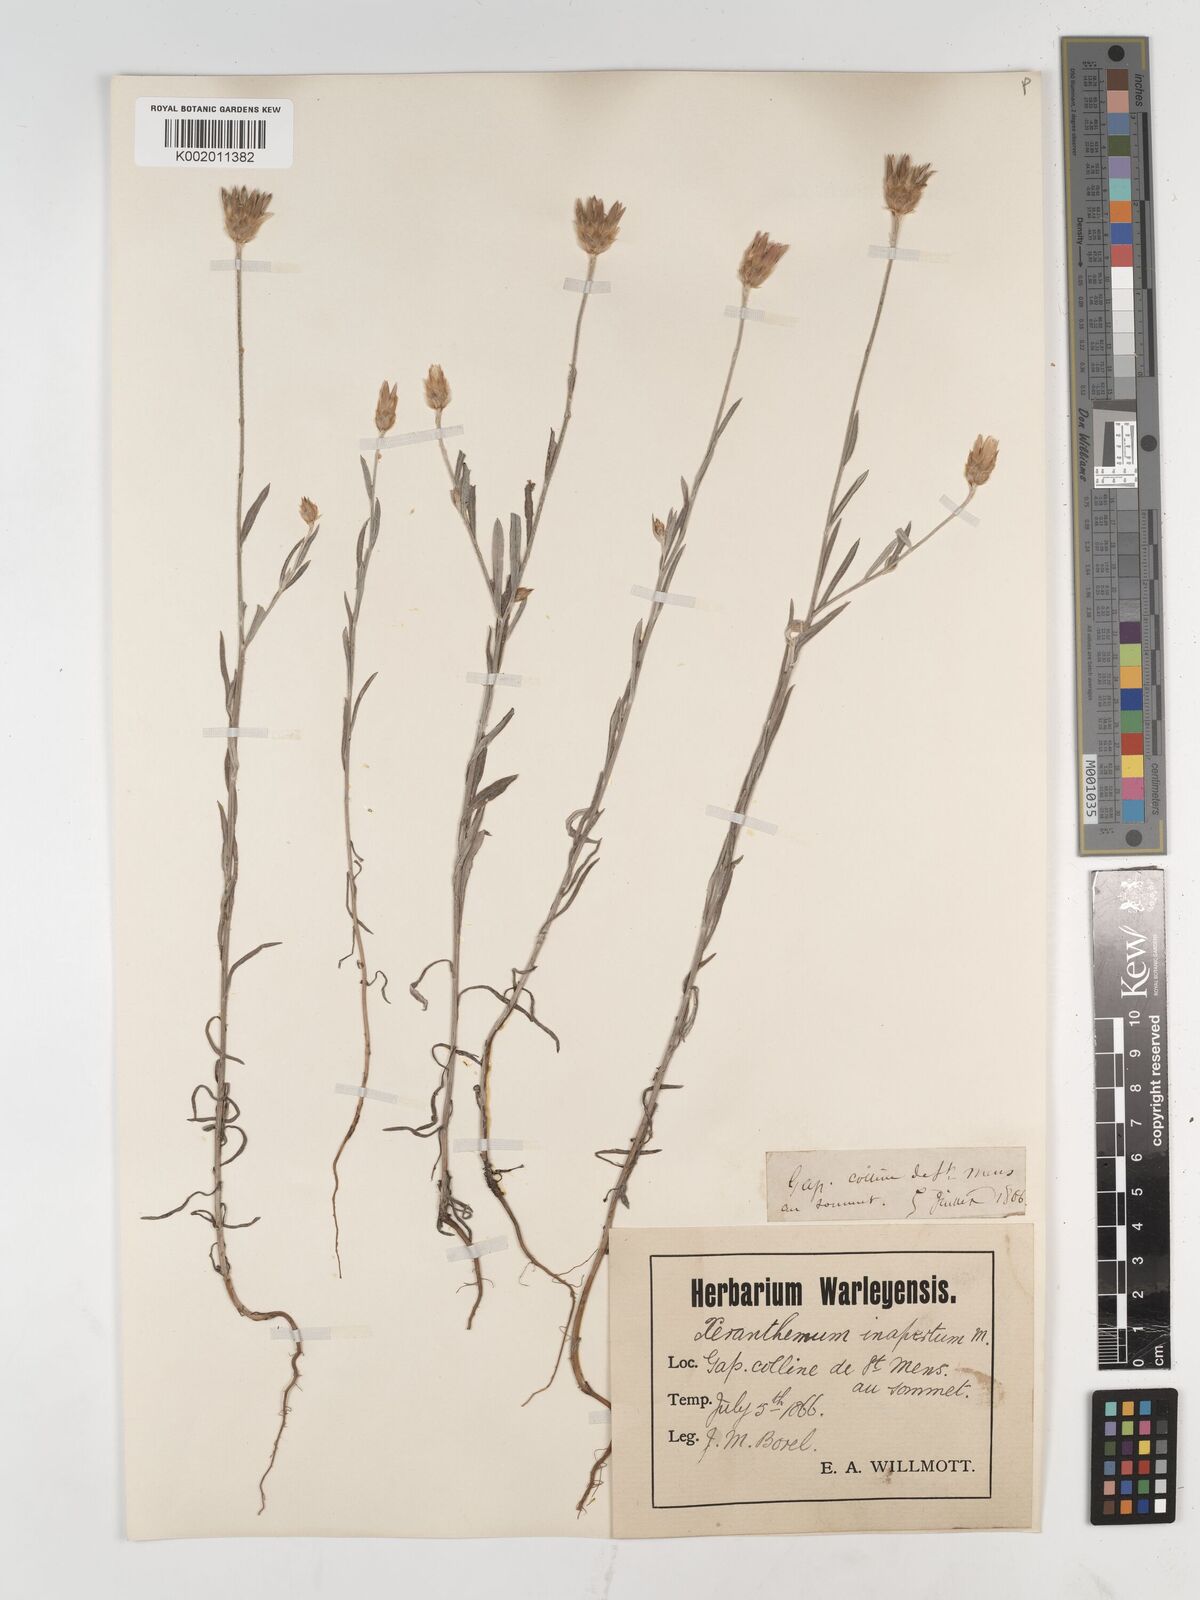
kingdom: Plantae
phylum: Tracheophyta
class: Magnoliopsida
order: Asterales
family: Asteraceae
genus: Xeranthemum
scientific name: Xeranthemum inapertum
